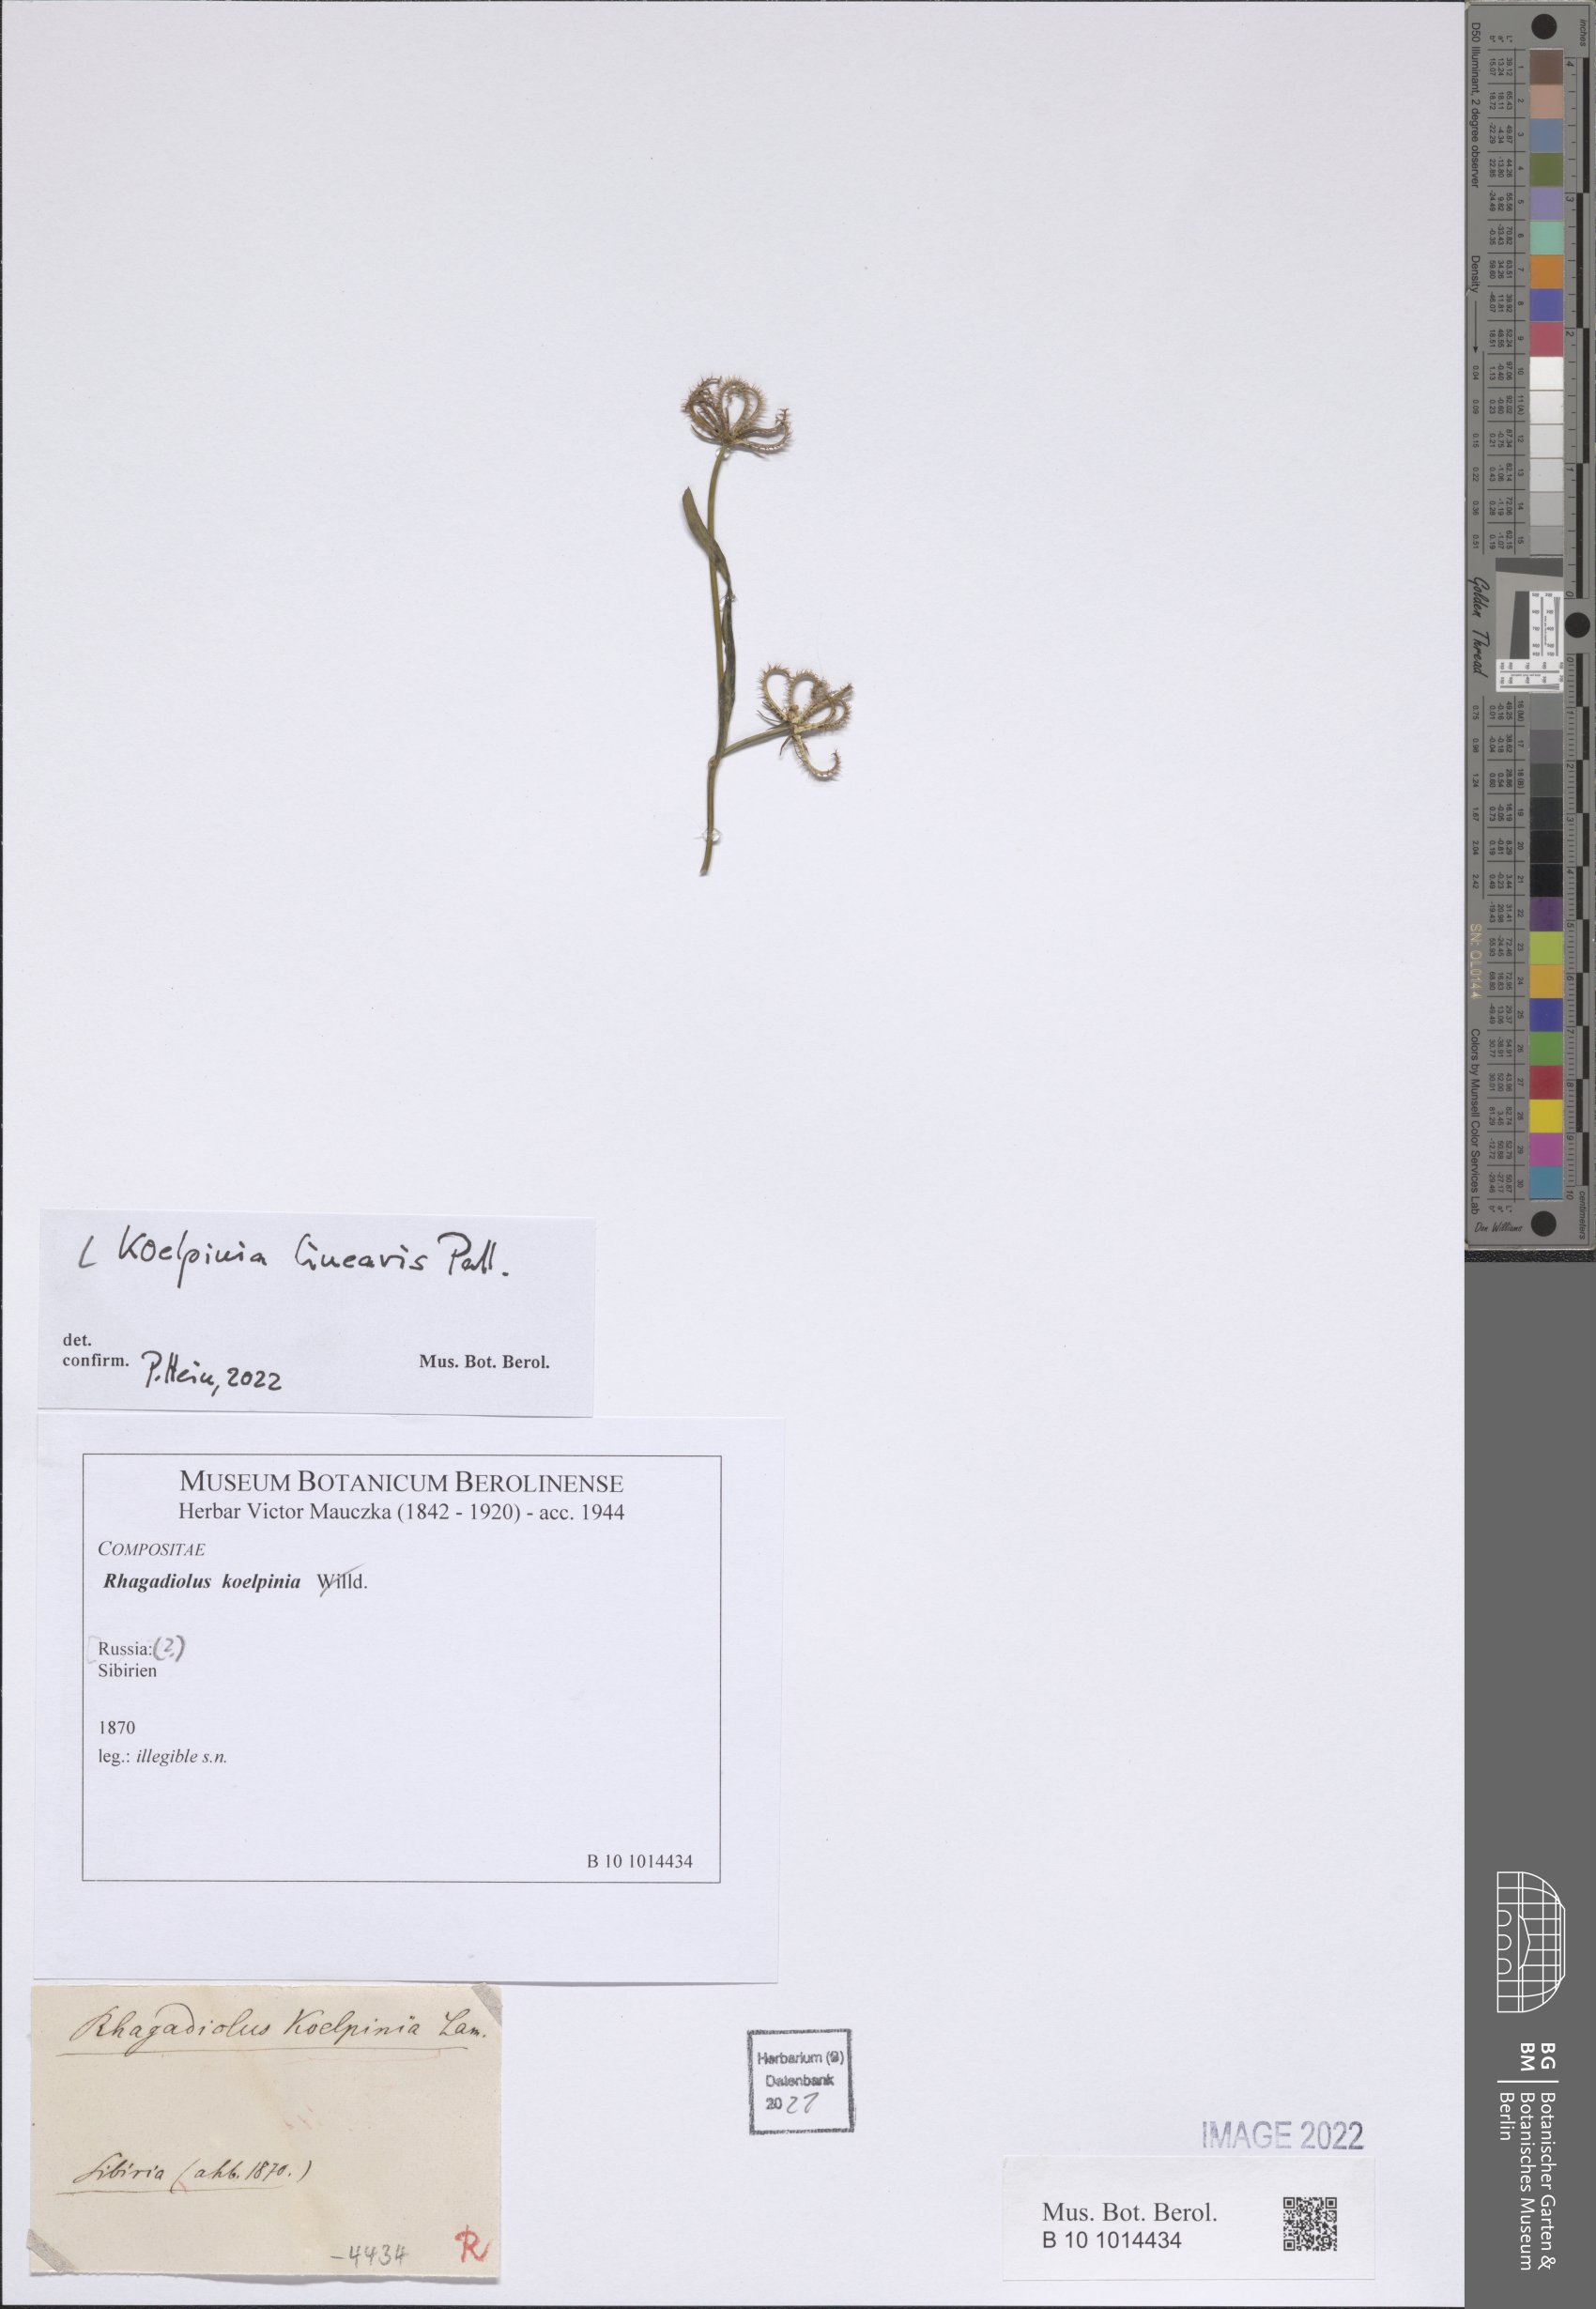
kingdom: Plantae
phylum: Tracheophyta
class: Magnoliopsida
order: Asterales
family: Asteraceae
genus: Koelpinia
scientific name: Koelpinia linearis
